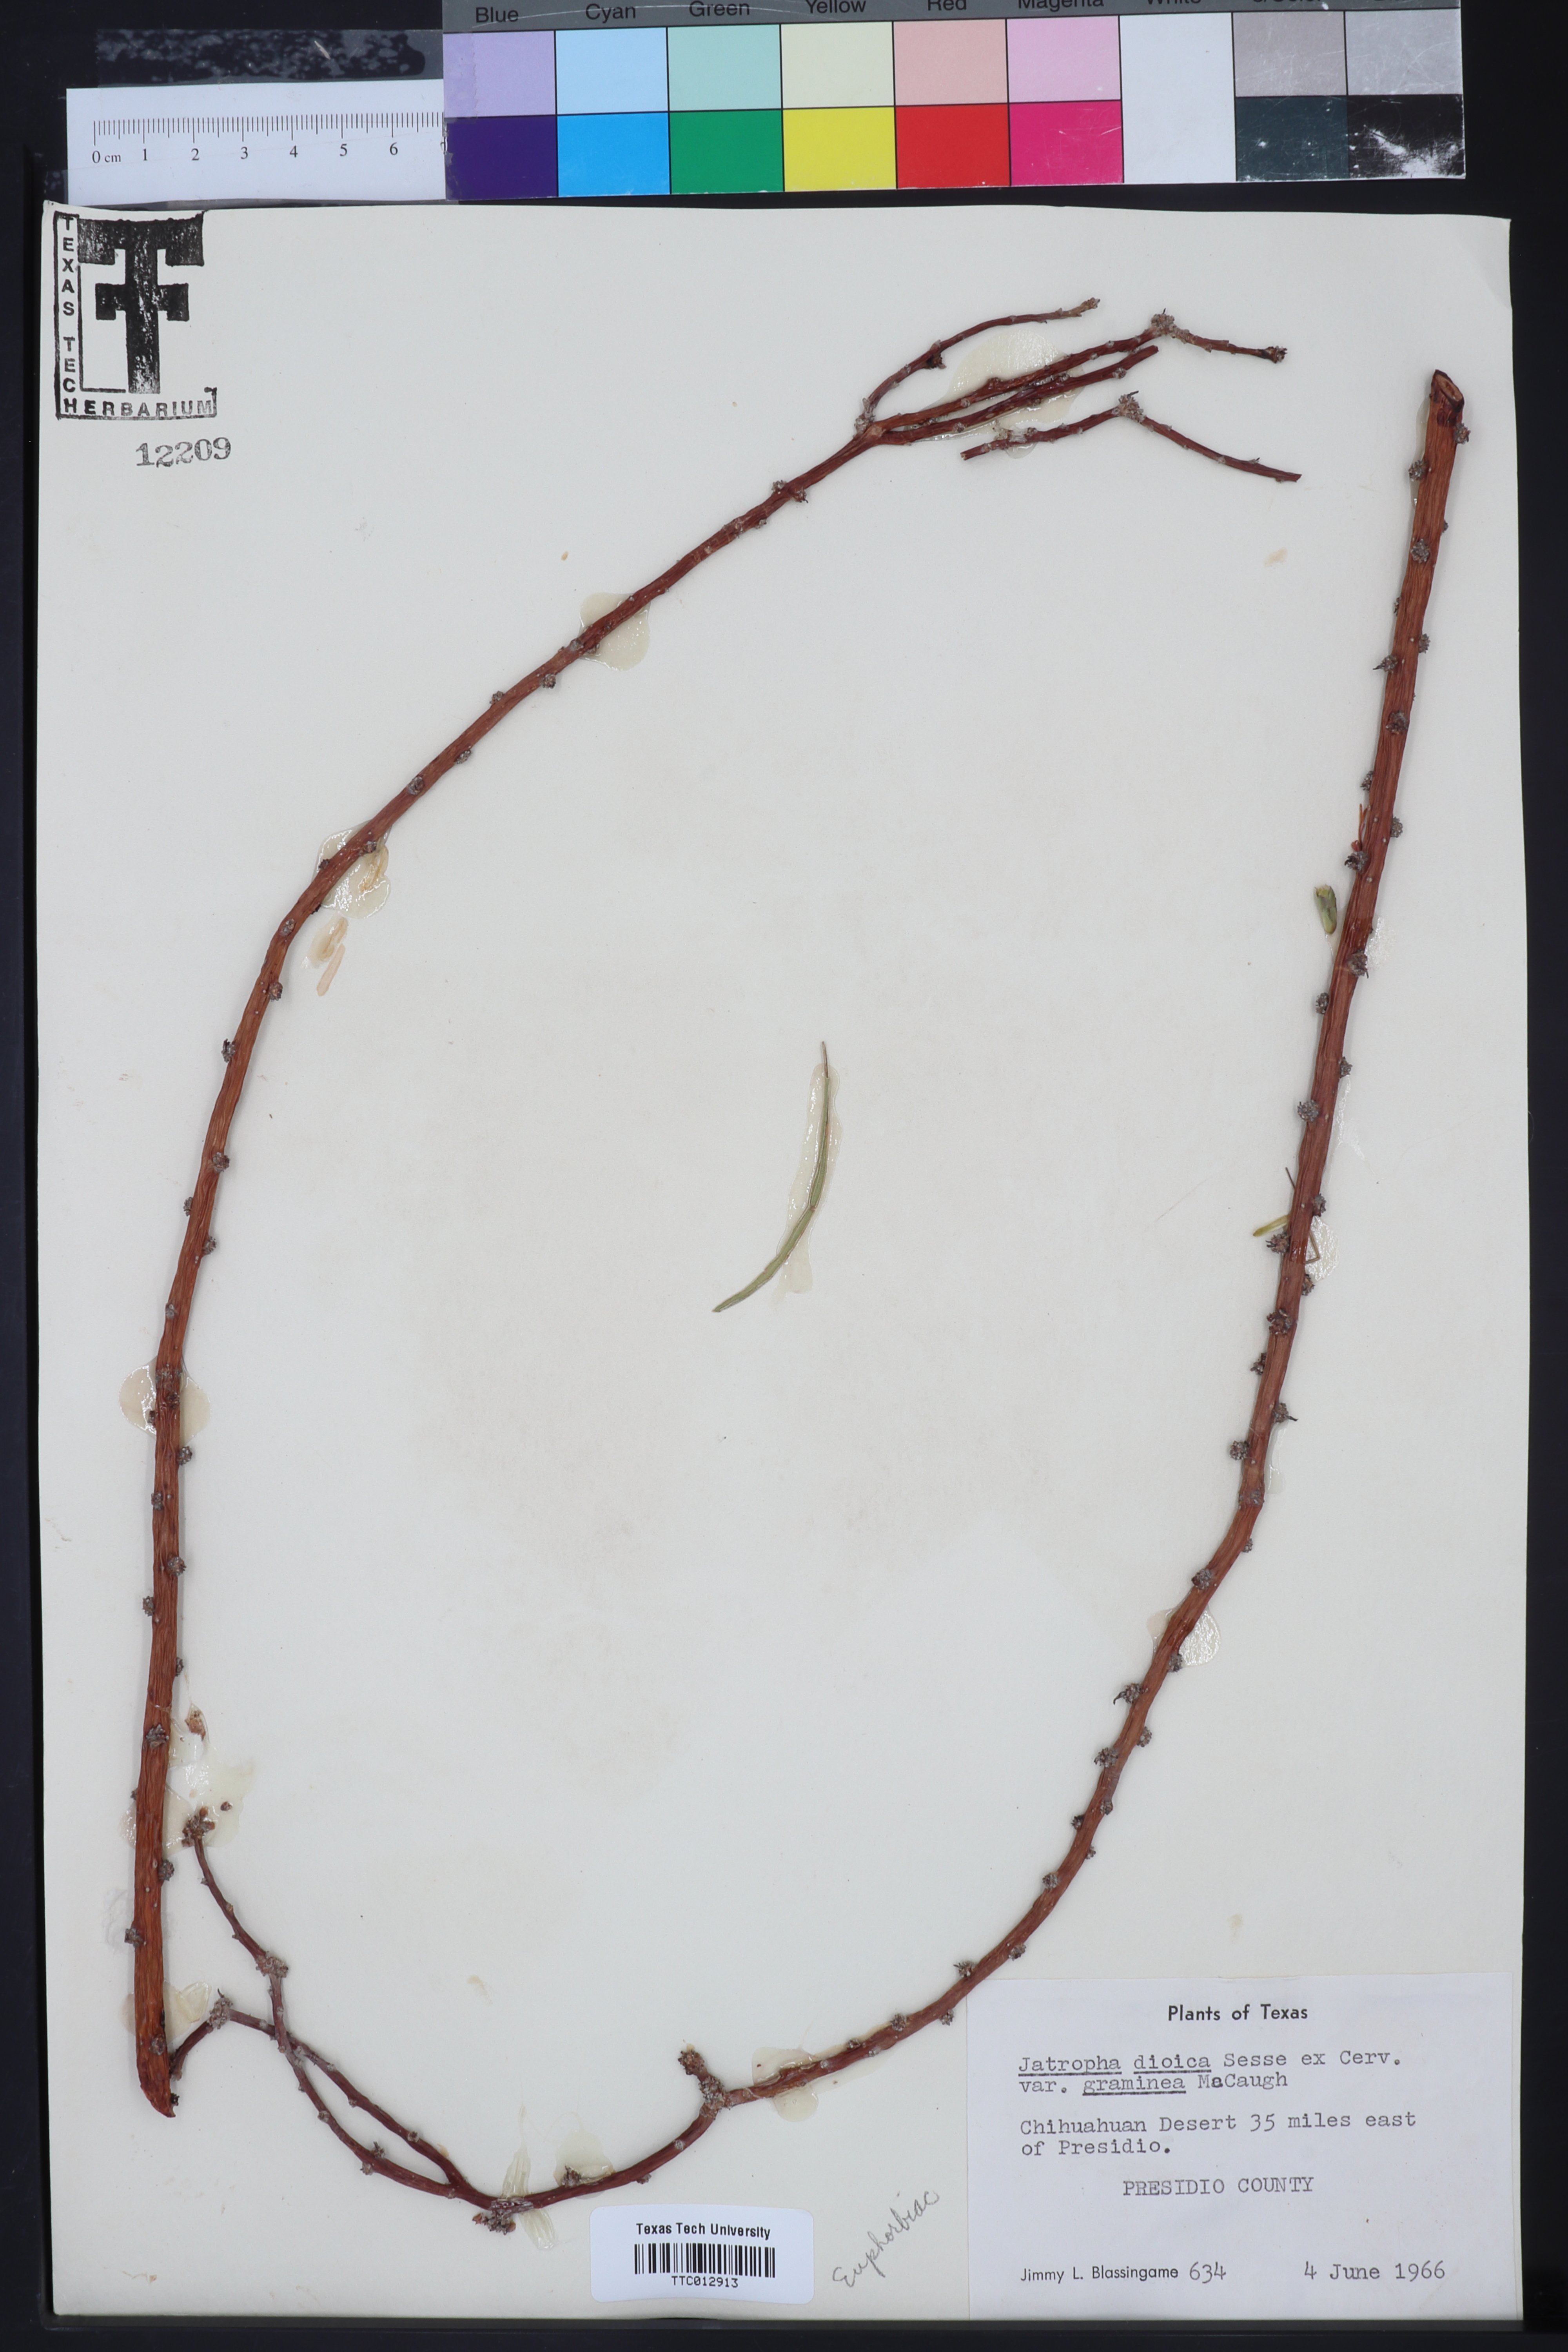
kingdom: Plantae
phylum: Tracheophyta
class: Magnoliopsida
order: Malpighiales
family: Euphorbiaceae
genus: Jatropha
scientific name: Jatropha dioica
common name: Leatherstem
